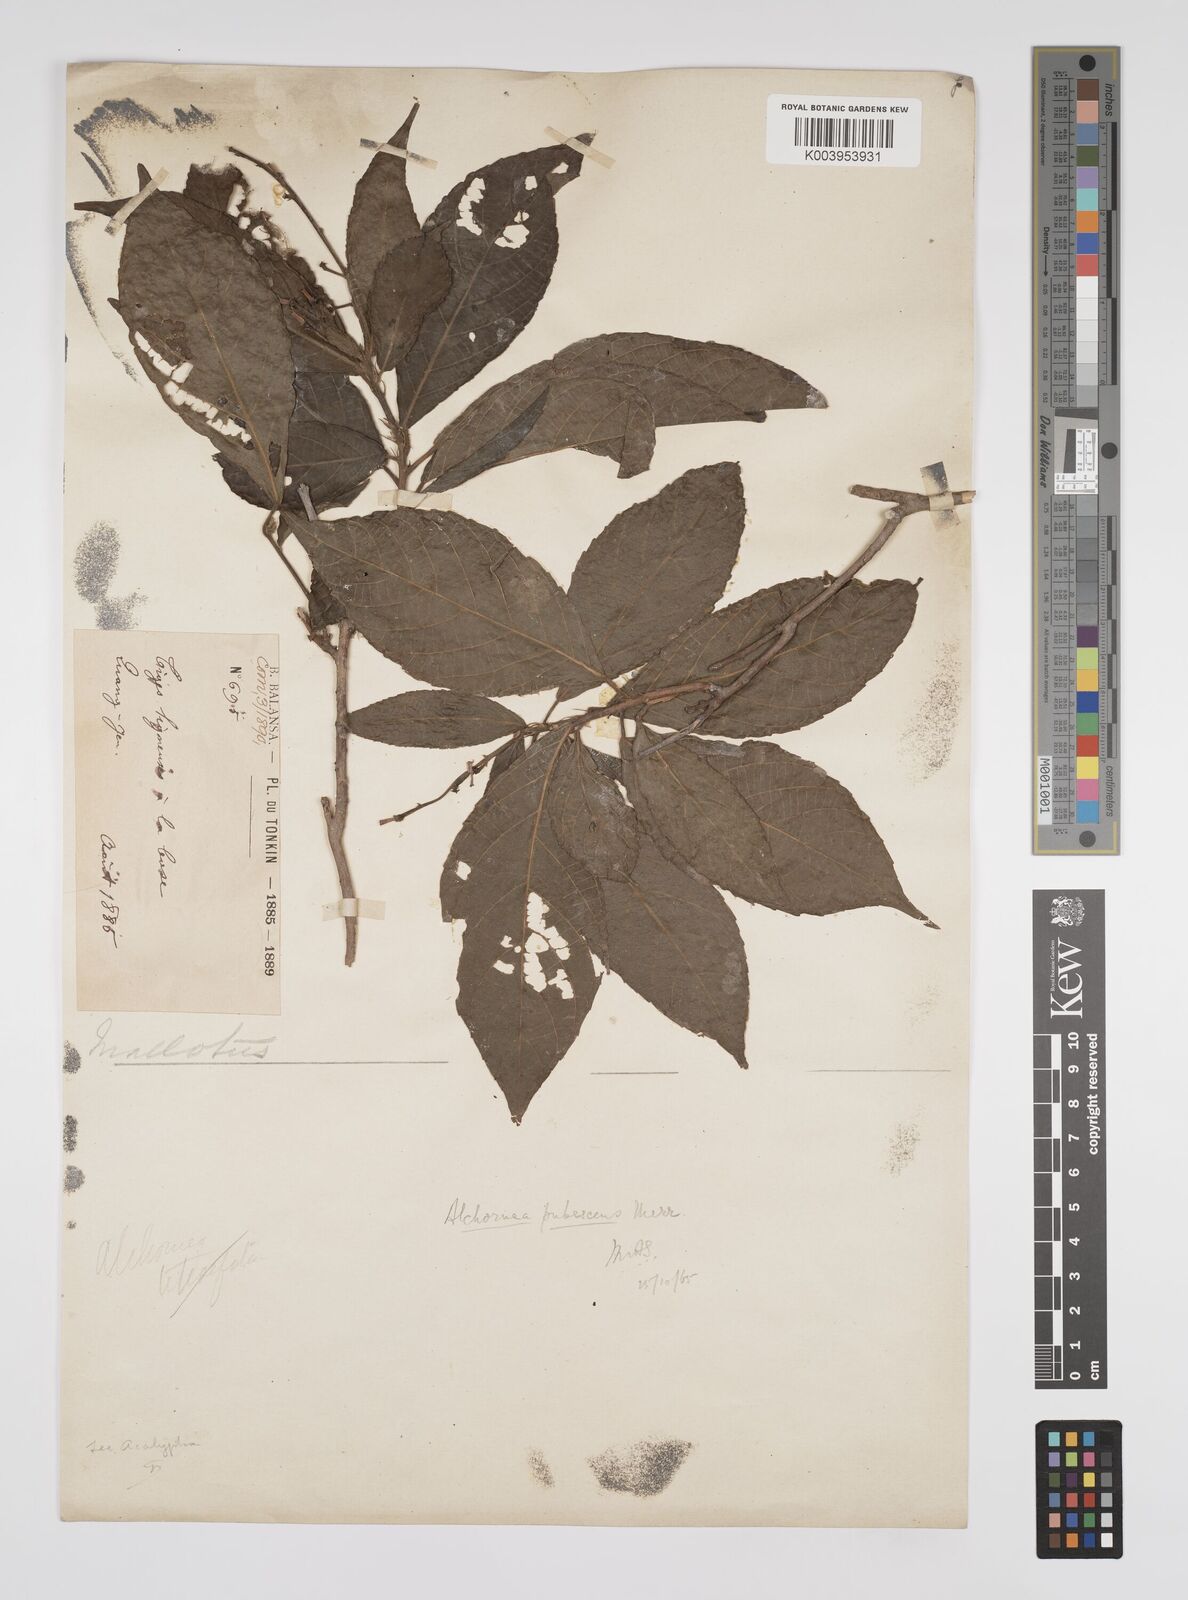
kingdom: Plantae
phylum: Tracheophyta
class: Magnoliopsida
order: Malpighiales
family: Euphorbiaceae
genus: Alchornea
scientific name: Alchornea rugosa
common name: Alchorntree
